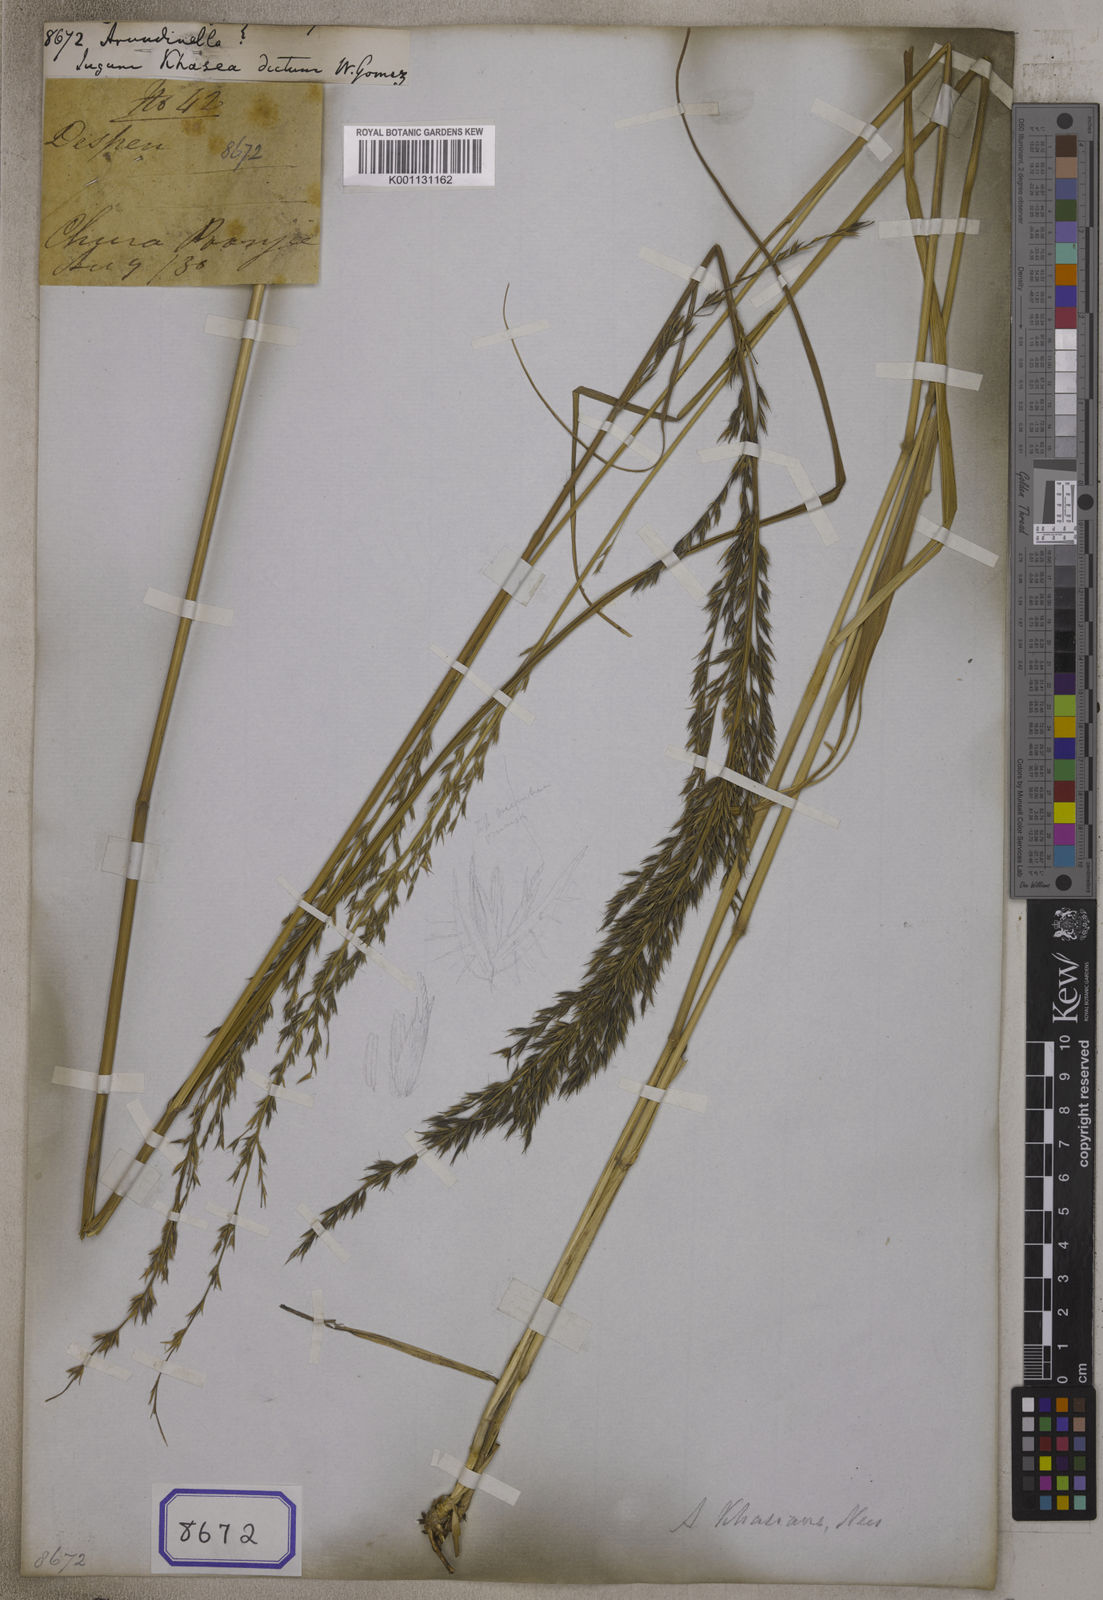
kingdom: Plantae
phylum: Tracheophyta
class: Liliopsida
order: Poales
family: Poaceae
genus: Arundinella
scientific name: Arundinella
